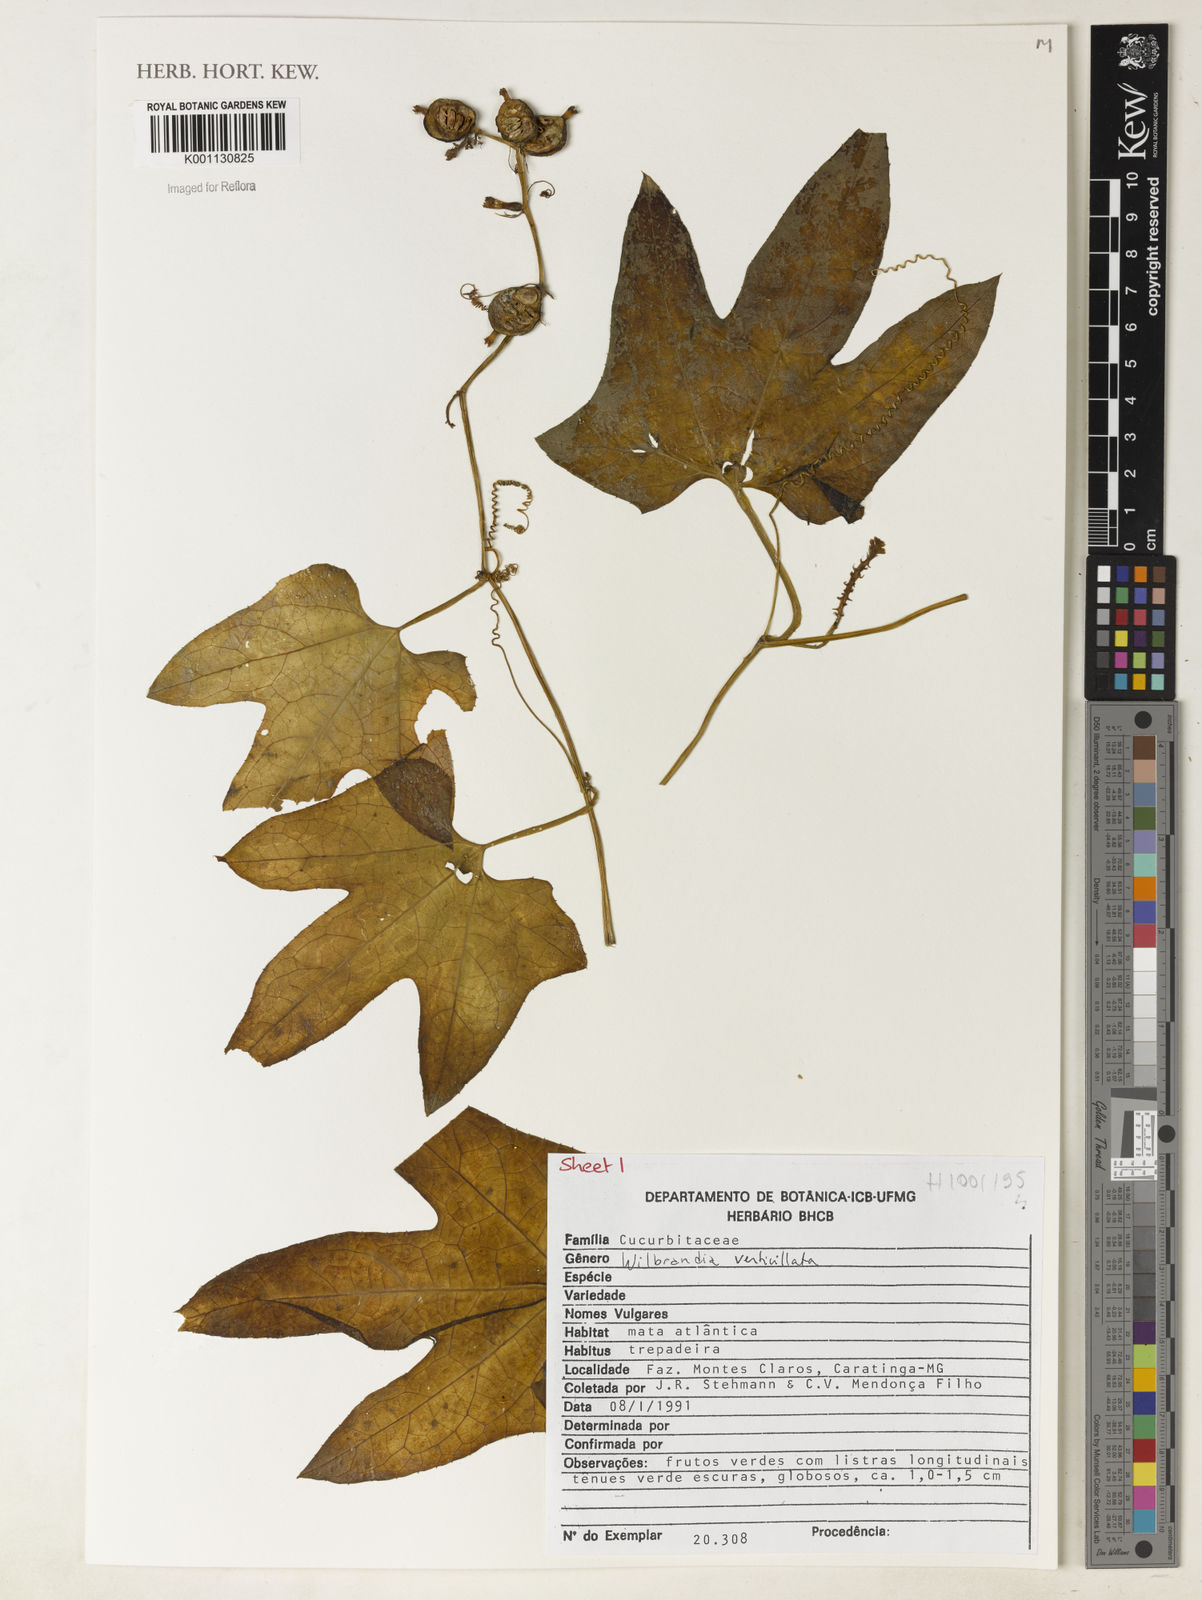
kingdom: Plantae
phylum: Tracheophyta
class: Magnoliopsida
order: Cucurbitales
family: Cucurbitaceae
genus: Wilbrandia
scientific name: Wilbrandia verticillata
